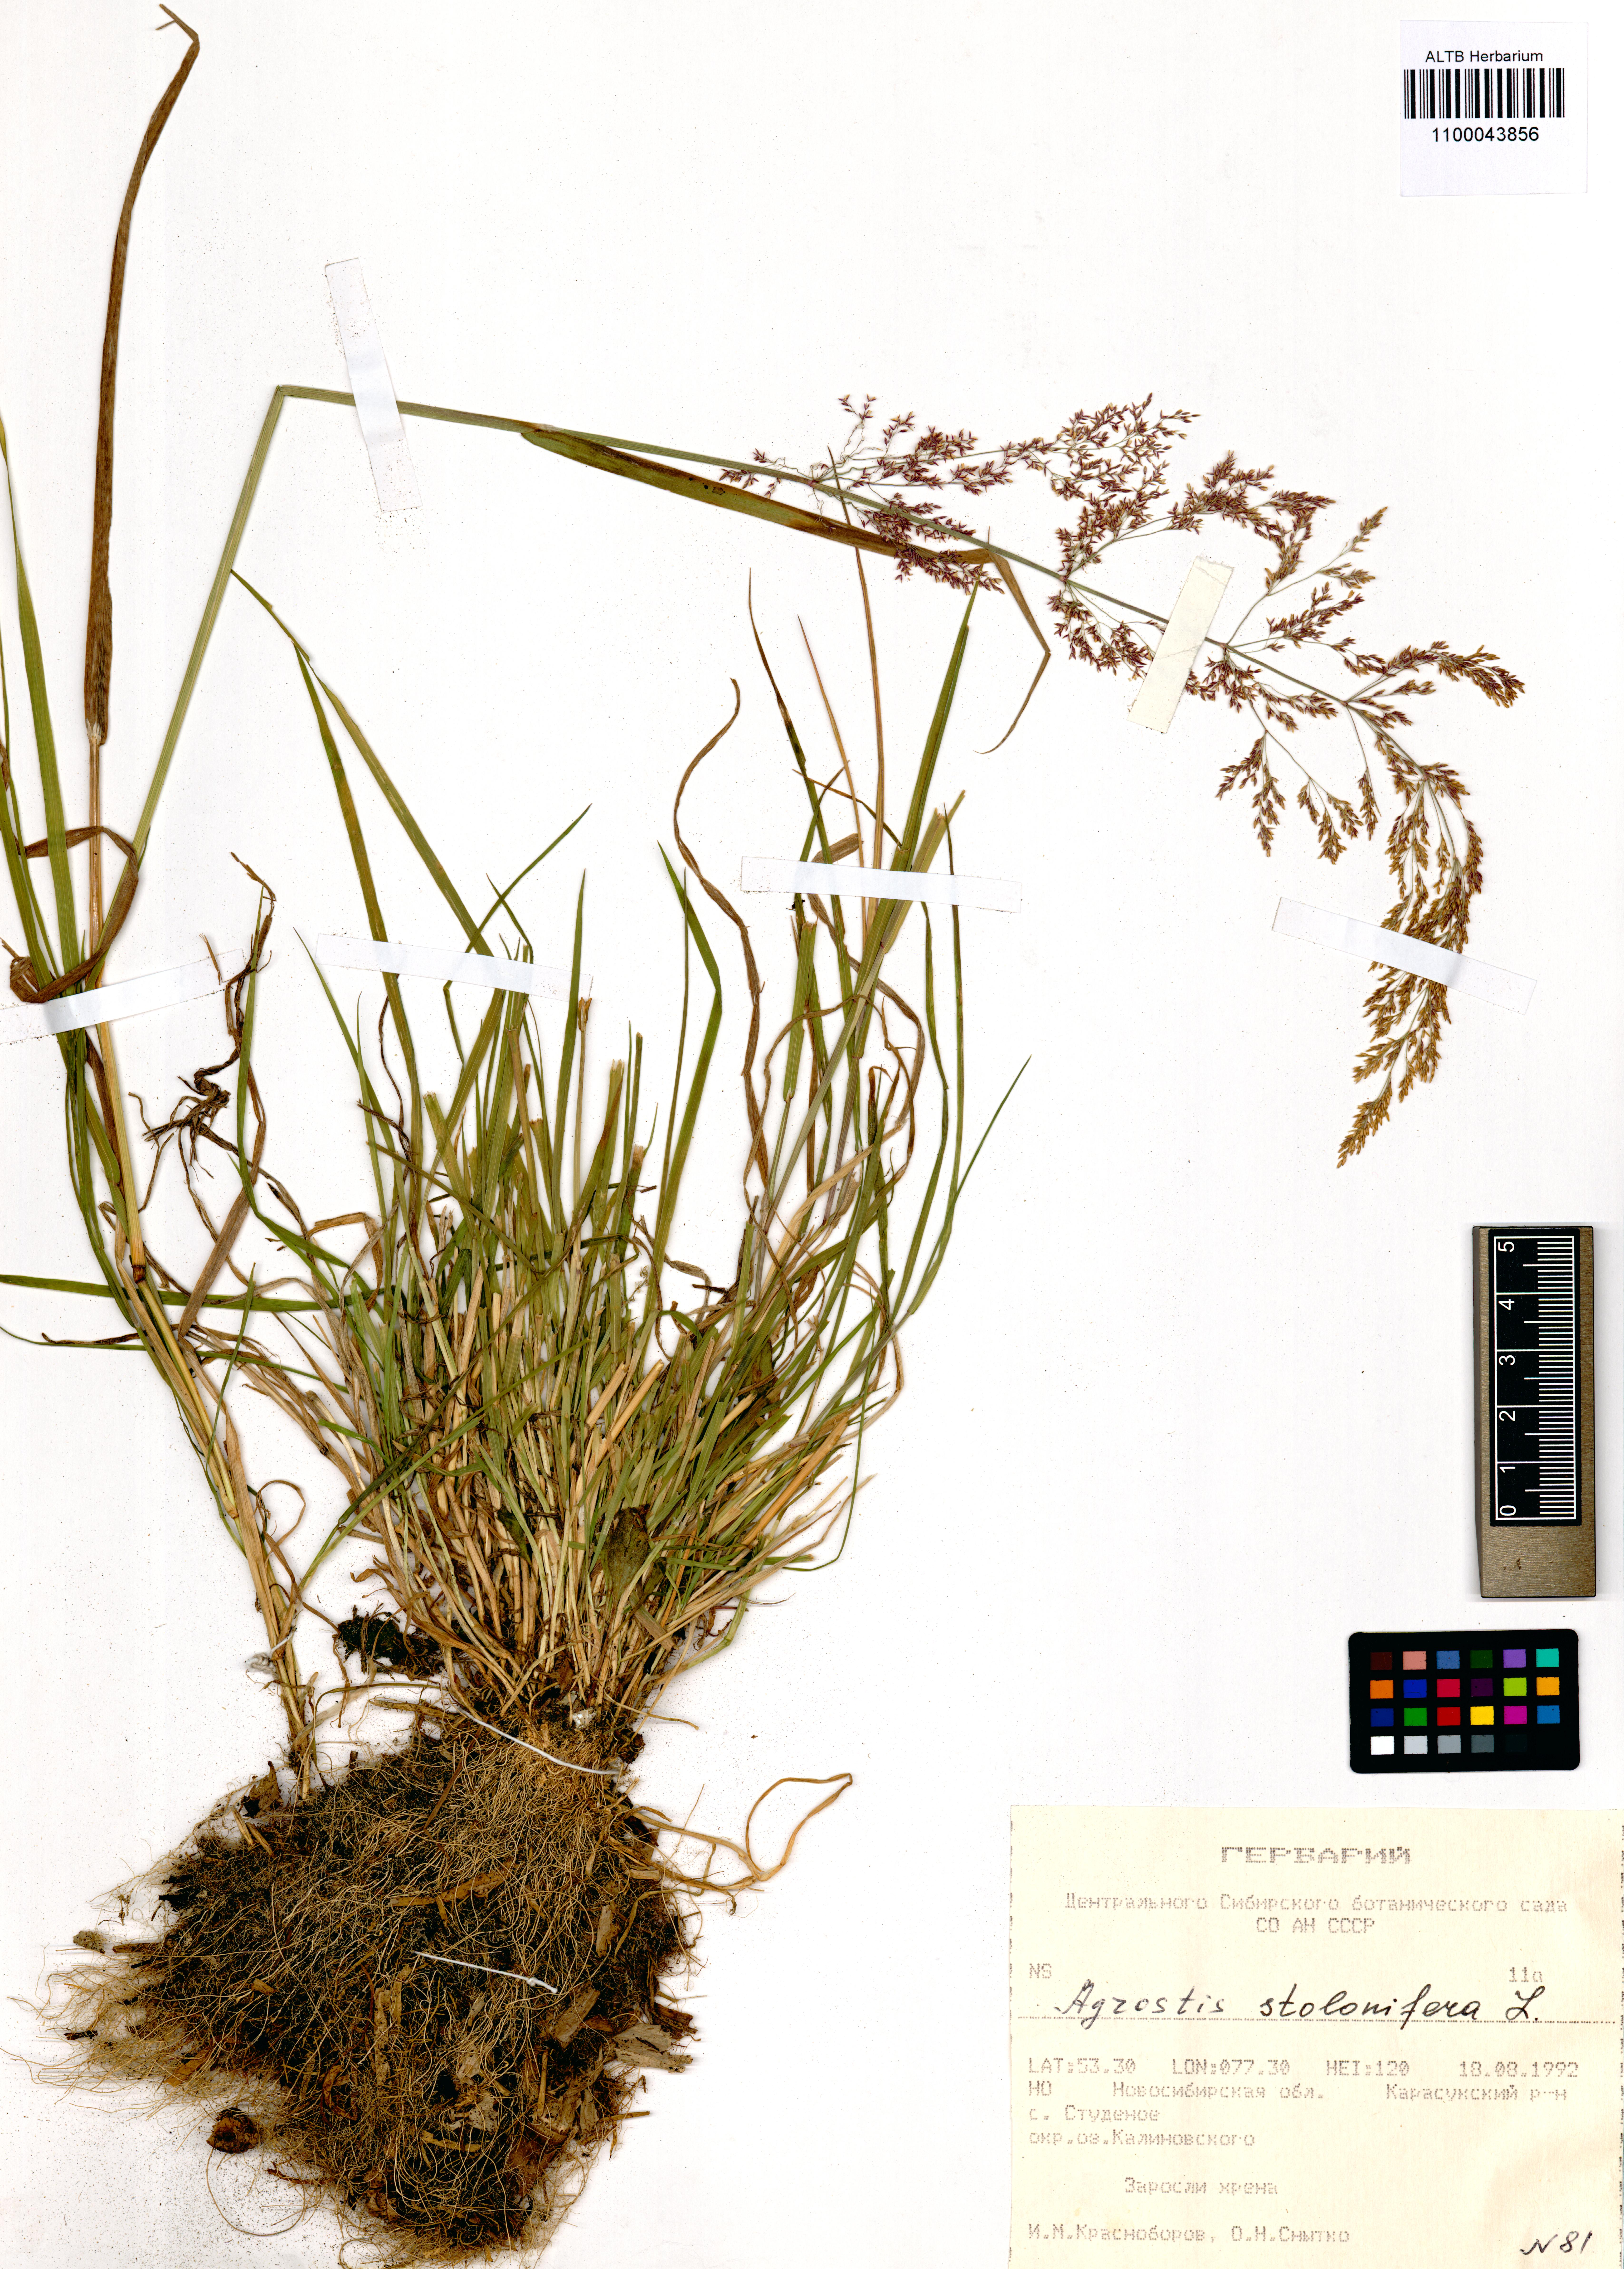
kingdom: Plantae
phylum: Tracheophyta
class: Liliopsida
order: Poales
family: Poaceae
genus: Agrostis
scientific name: Agrostis stolonifera
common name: Creeping bentgrass
